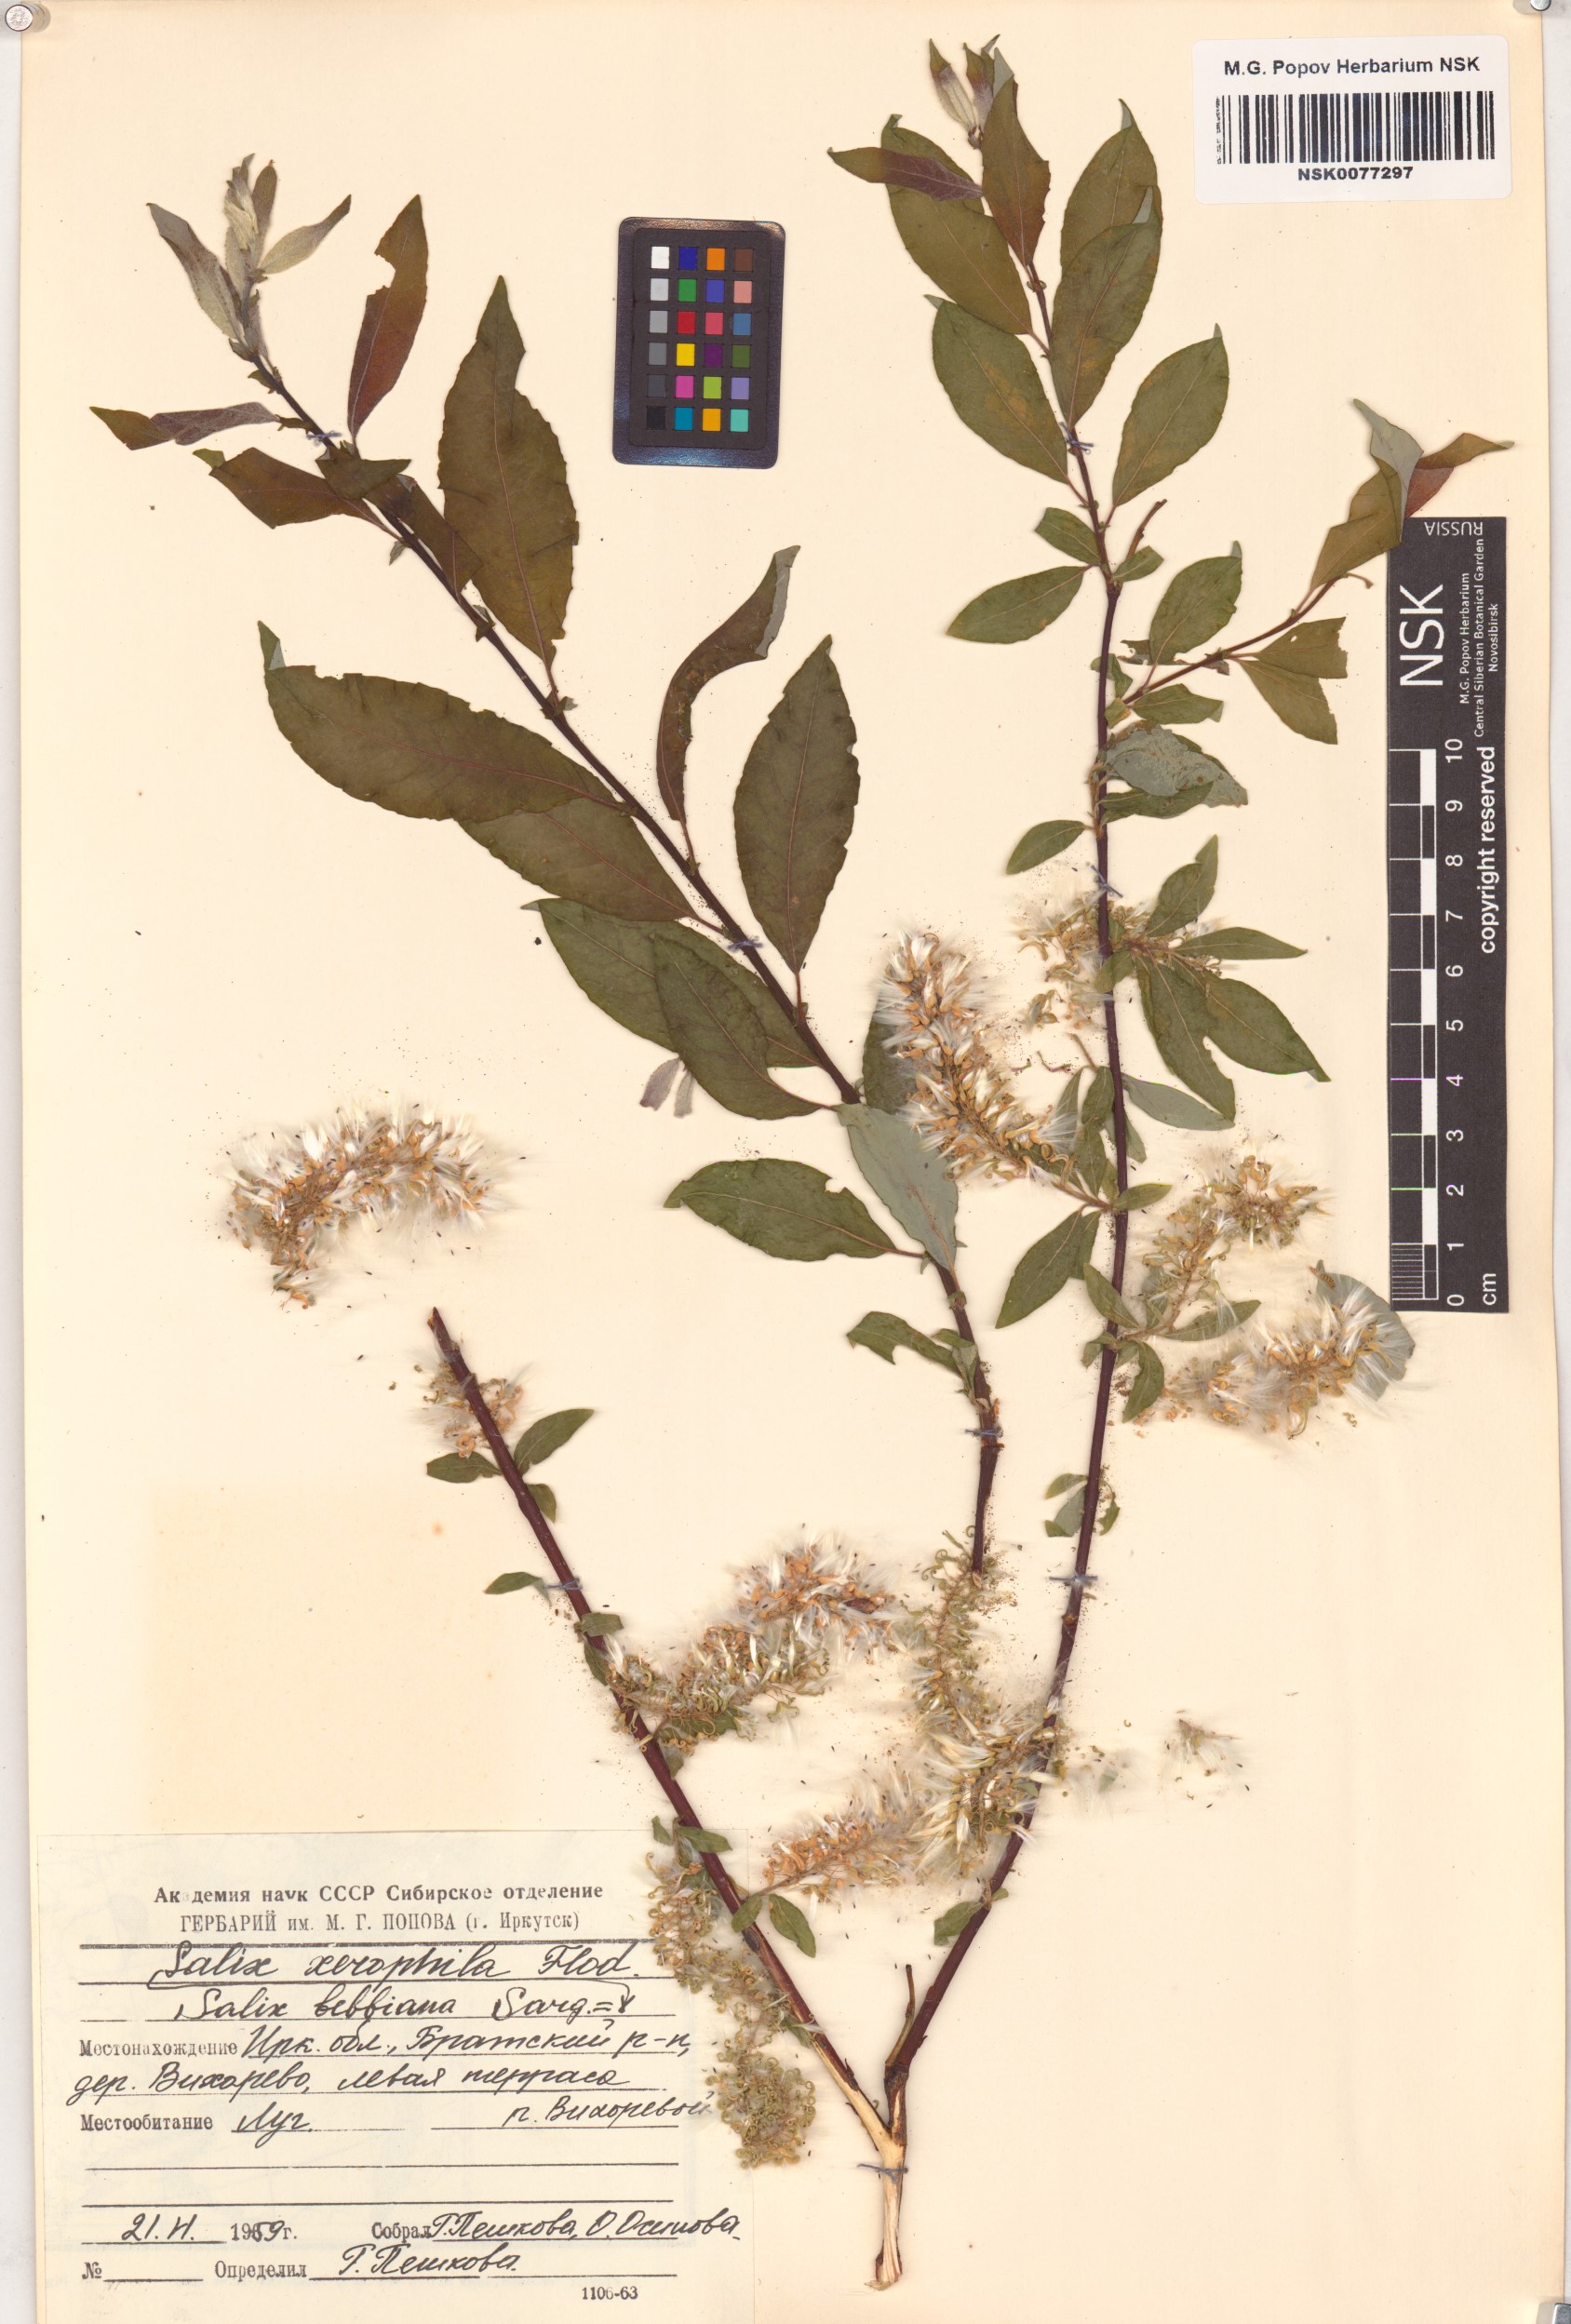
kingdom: Plantae
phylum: Tracheophyta
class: Magnoliopsida
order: Malpighiales
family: Salicaceae
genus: Salix
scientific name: Salix bebbiana
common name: Bebb's willow
